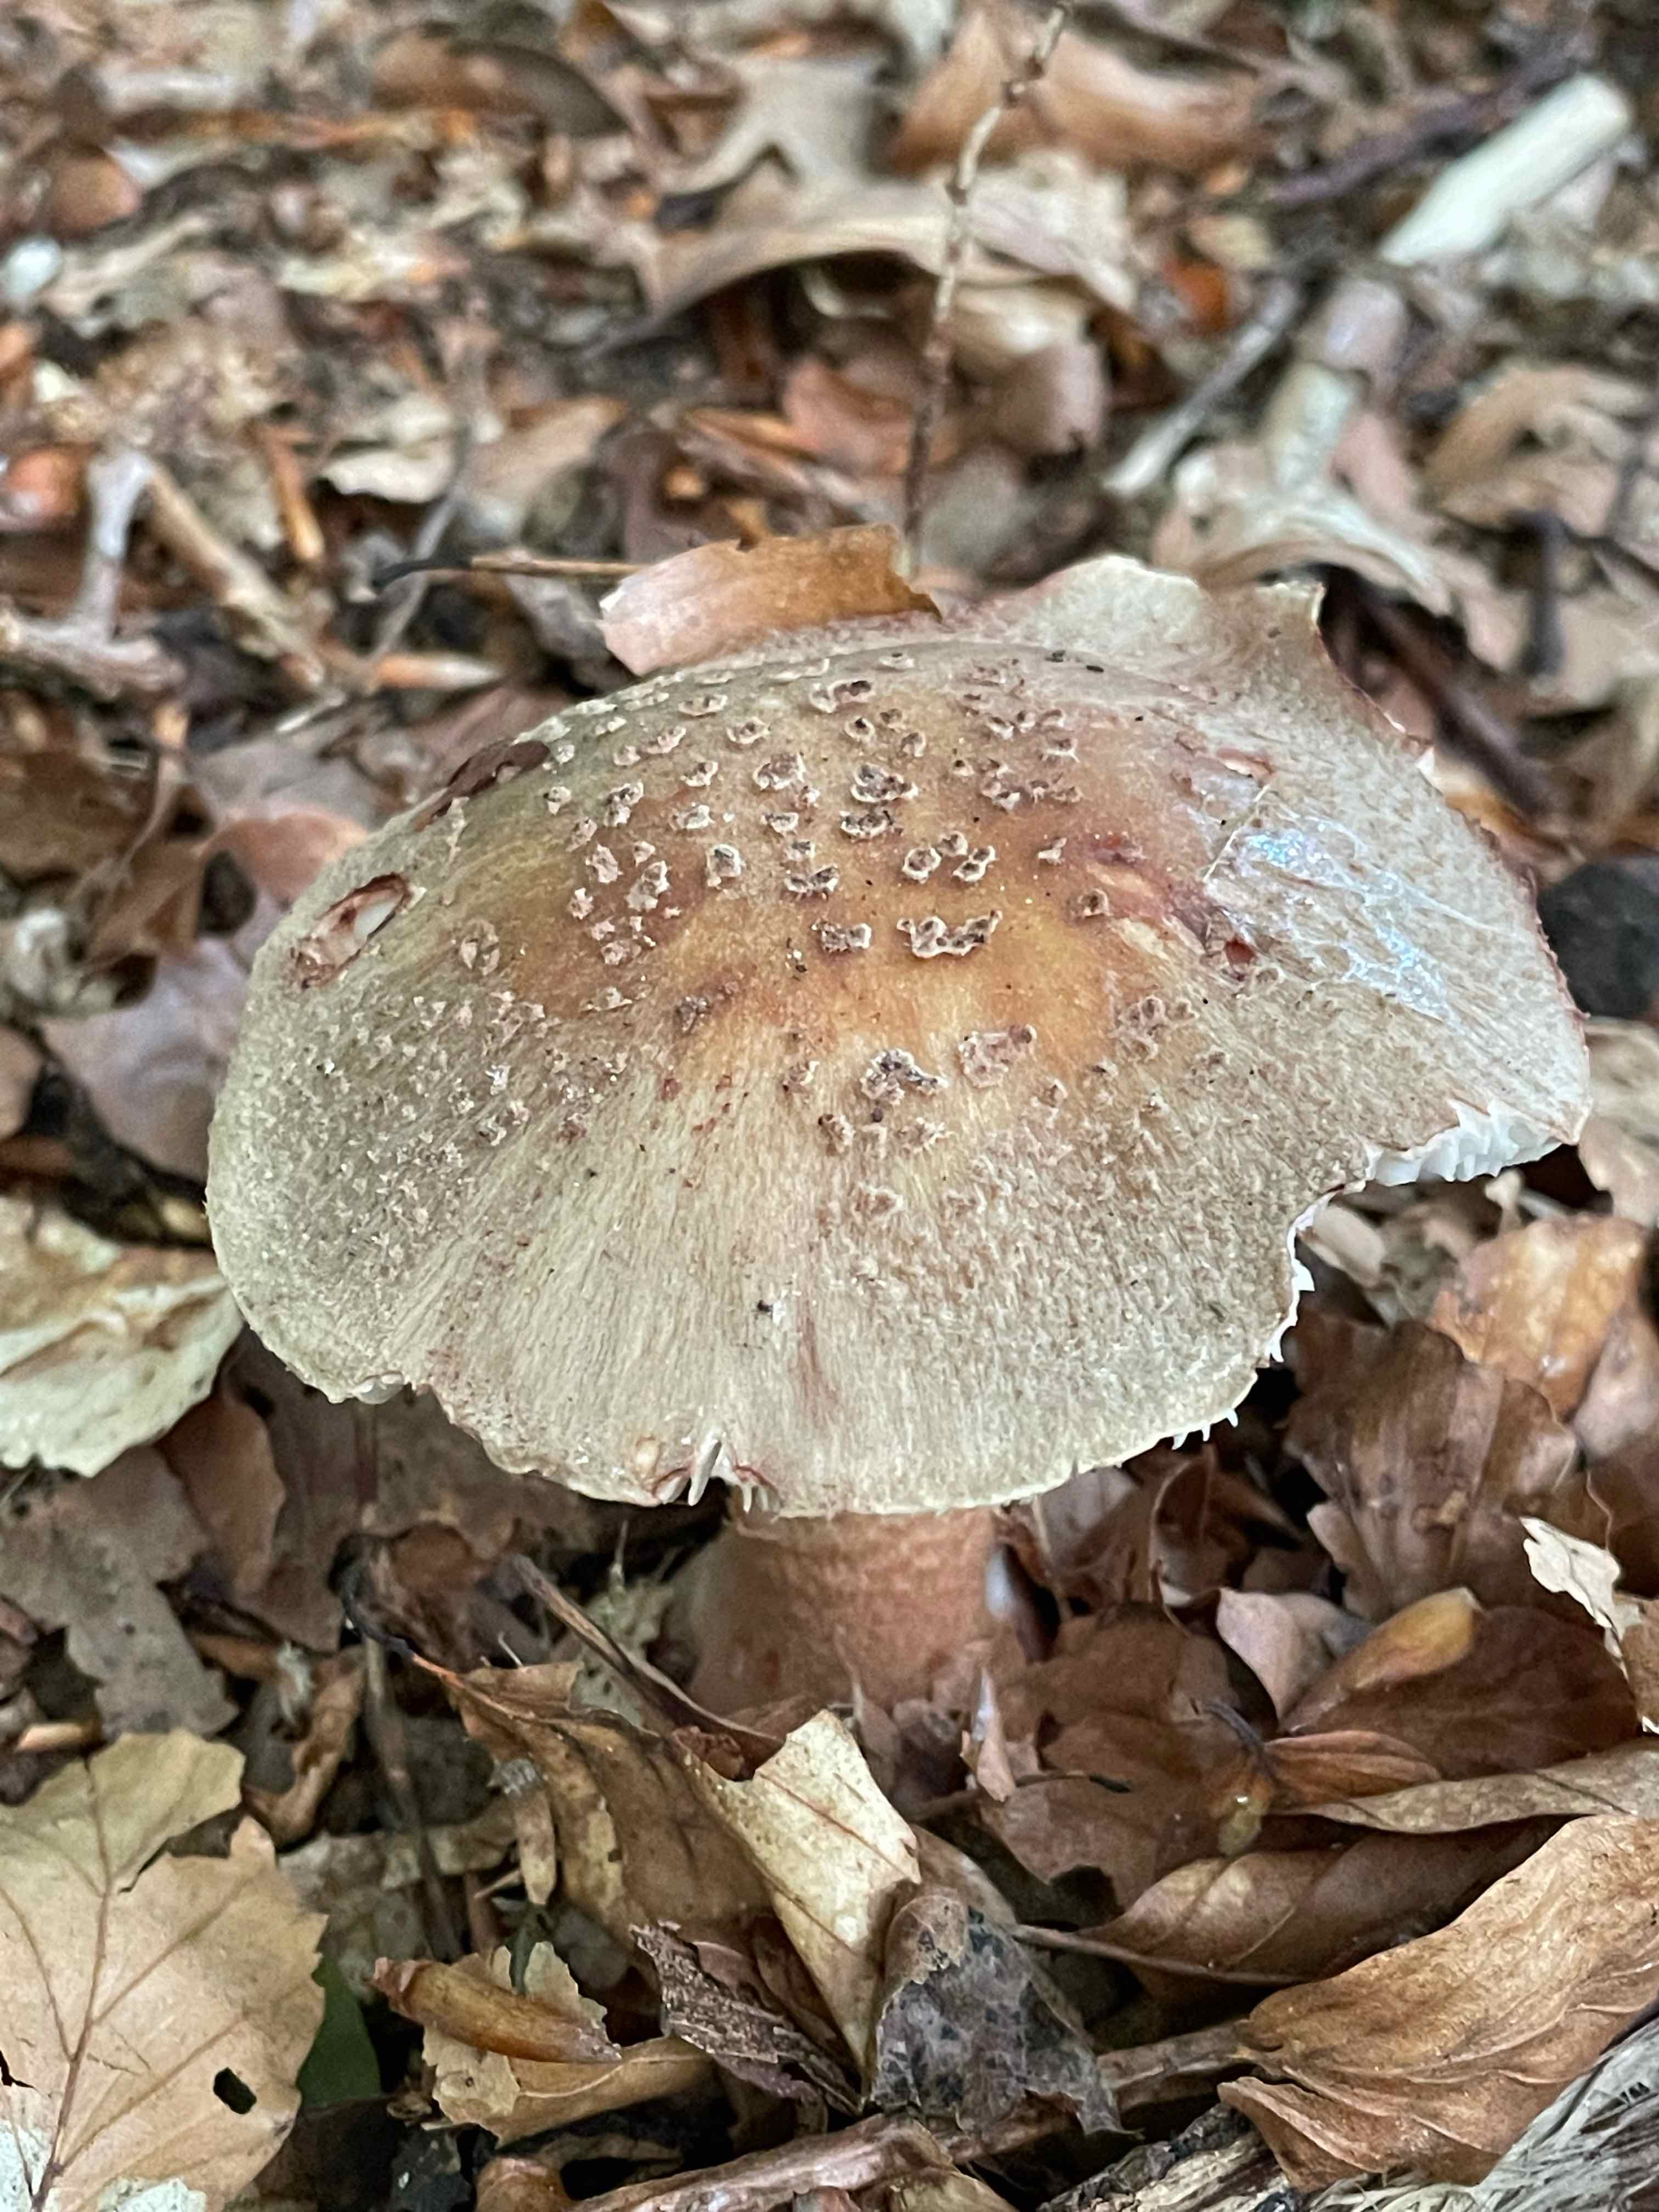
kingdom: Fungi
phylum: Basidiomycota
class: Agaricomycetes
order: Agaricales
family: Amanitaceae
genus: Amanita
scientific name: Amanita rubescens
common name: rødmende fluesvamp
